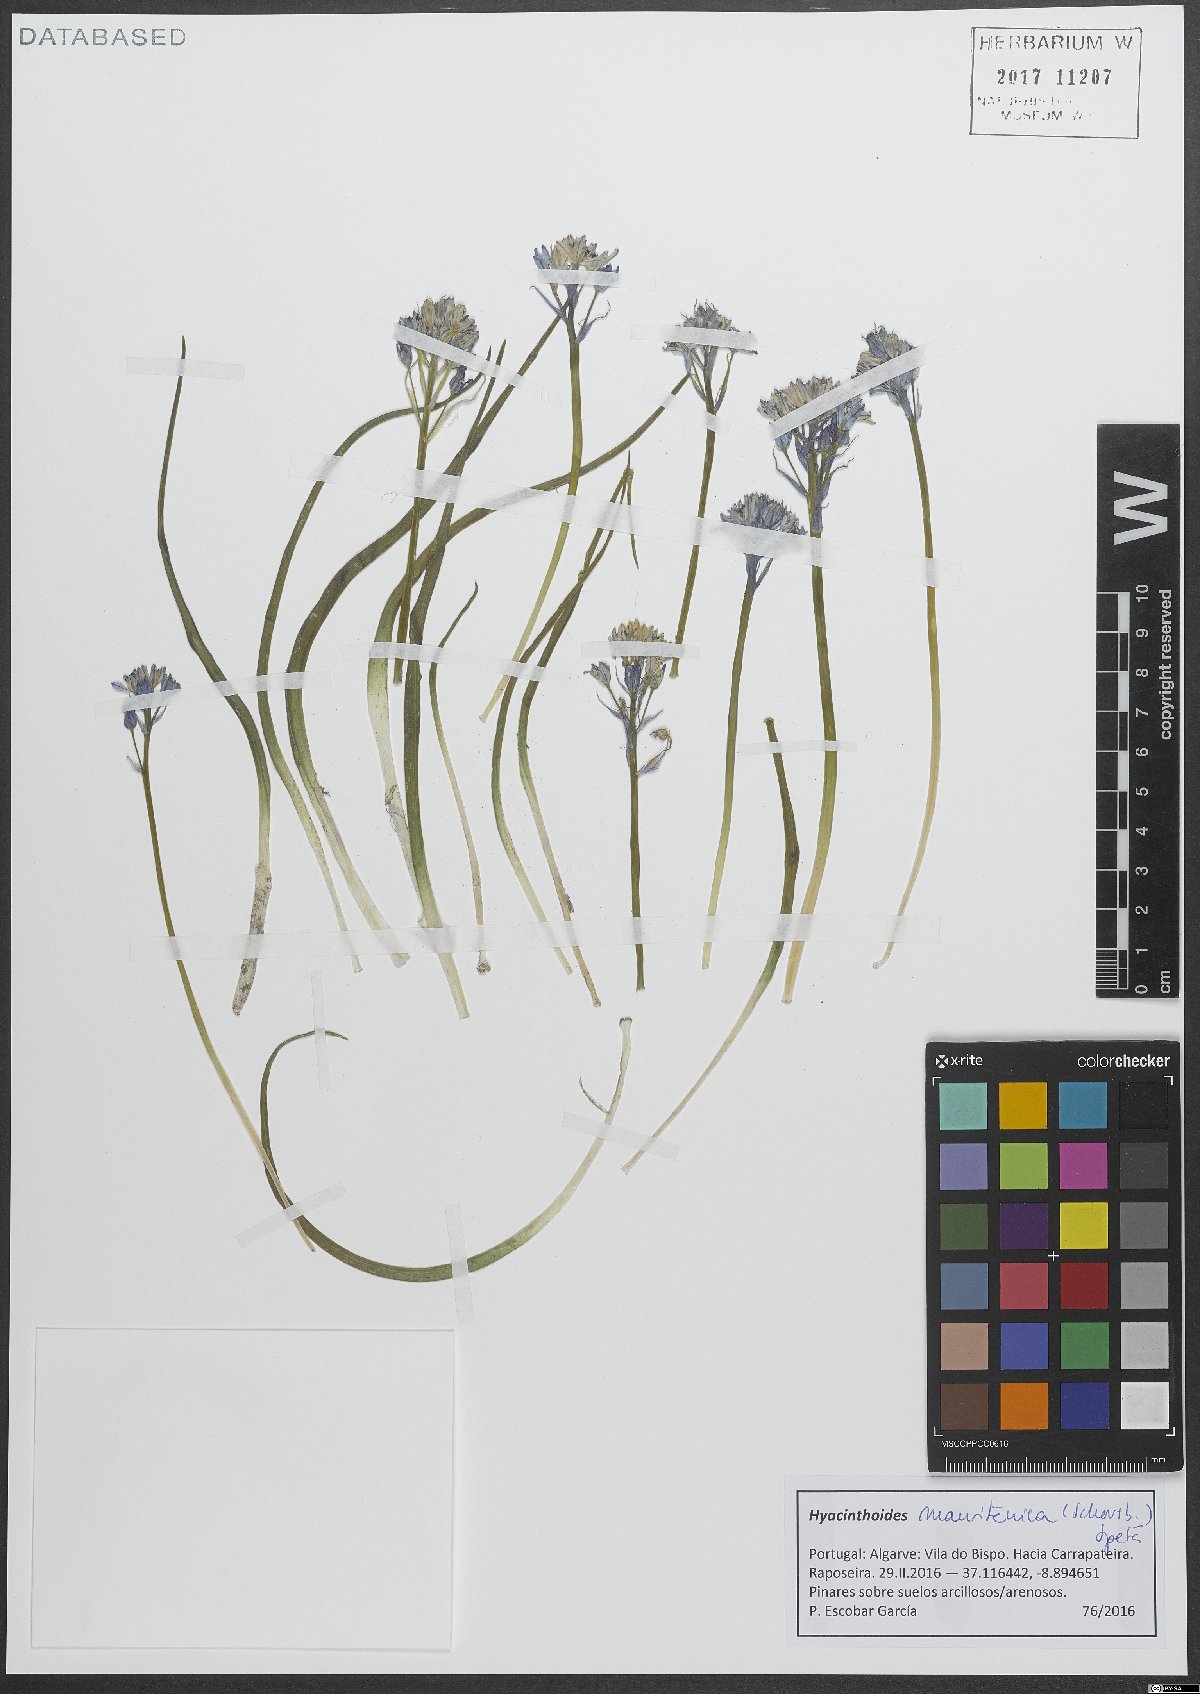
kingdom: Plantae
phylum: Tracheophyta
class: Liliopsida
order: Asparagales
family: Asparagaceae
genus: Hyacinthoides
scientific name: Hyacinthoides mauritanica
